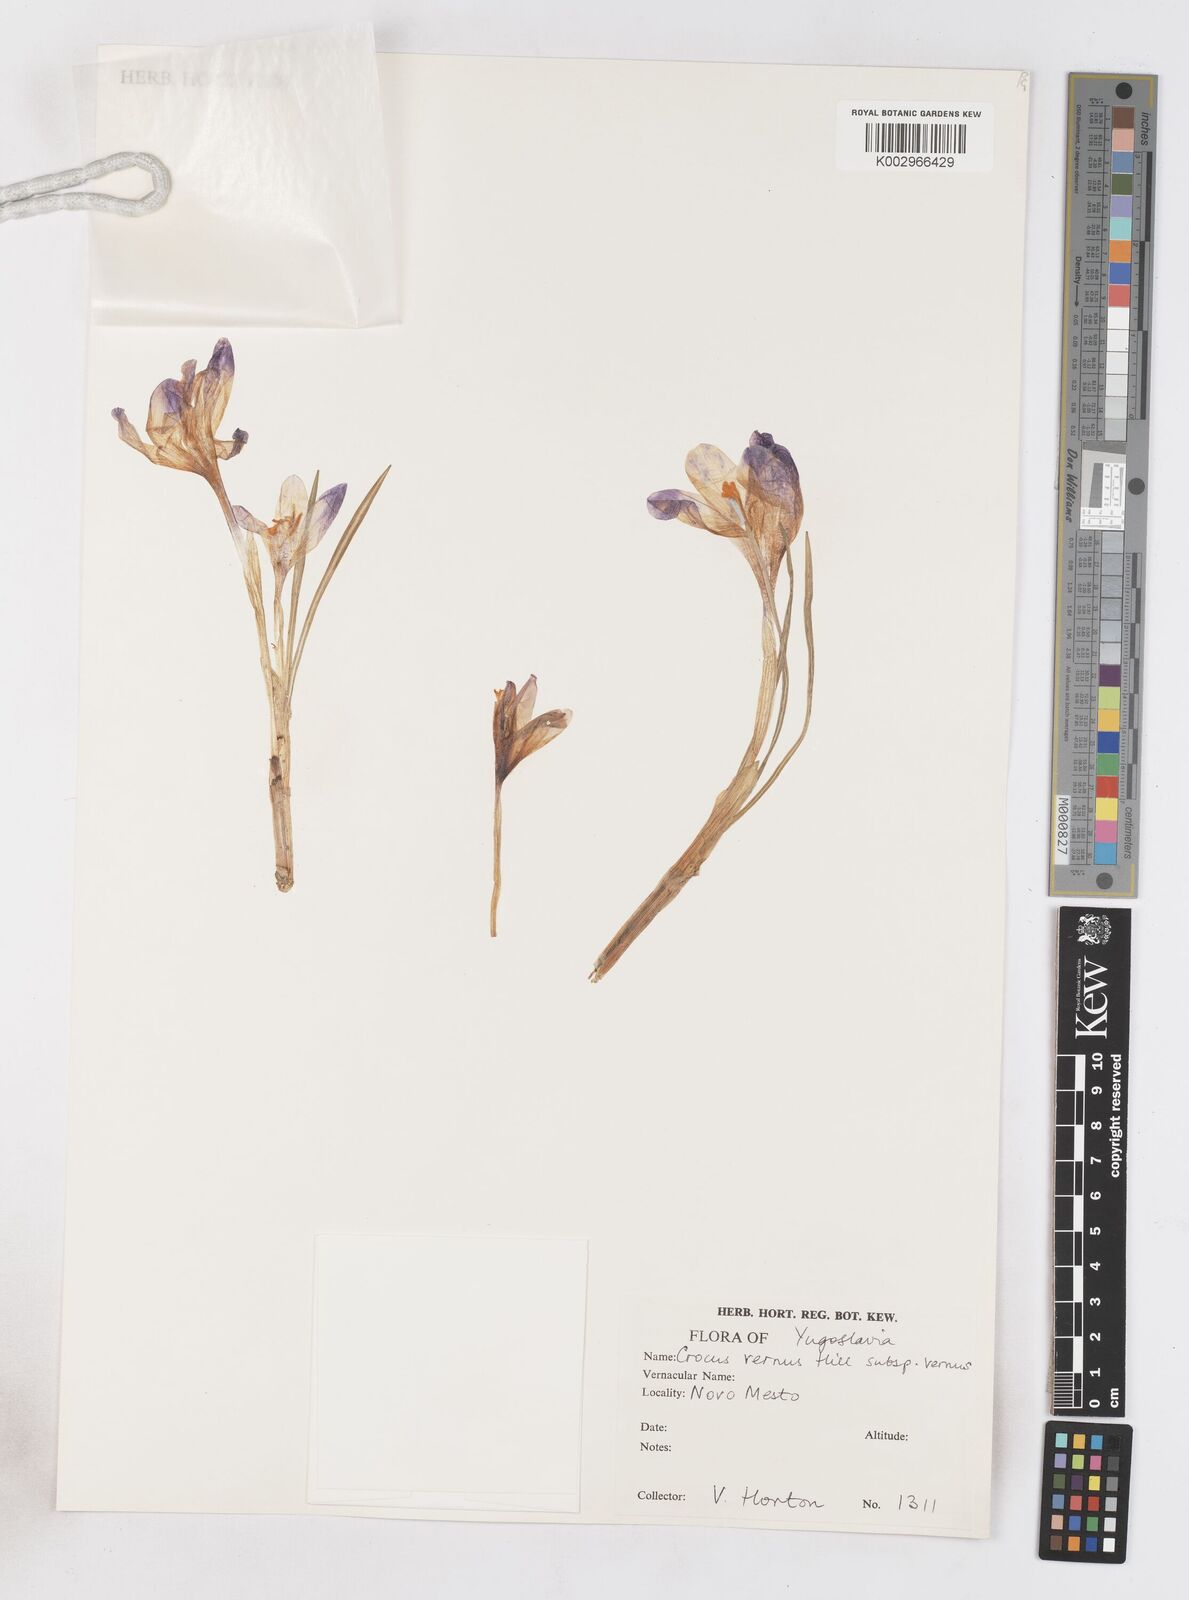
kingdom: Plantae
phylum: Tracheophyta
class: Liliopsida
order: Asparagales
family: Iridaceae
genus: Crocus
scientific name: Crocus vernus
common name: Spring crocus
